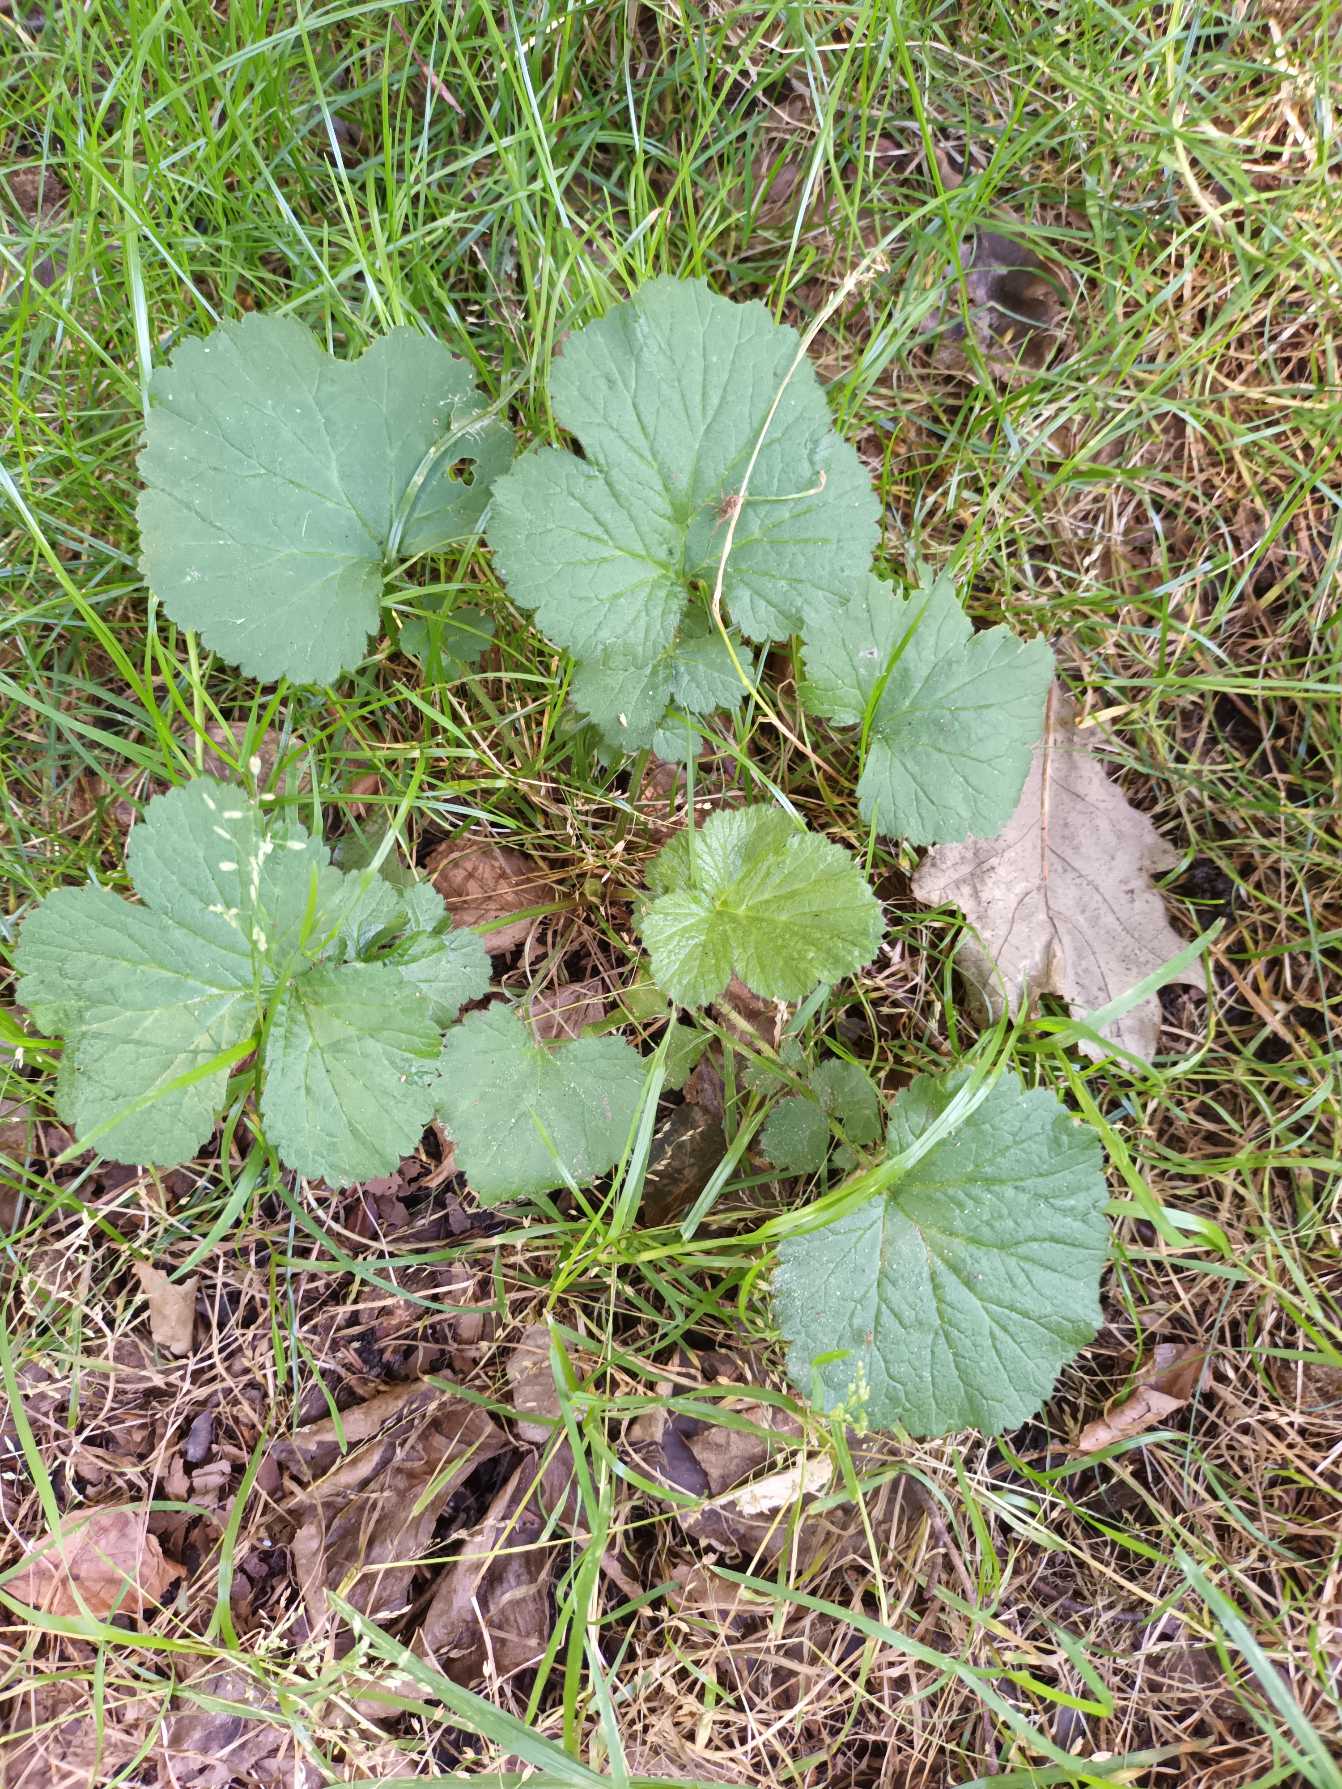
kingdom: Plantae
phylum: Tracheophyta
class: Magnoliopsida
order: Rosales
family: Rosaceae
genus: Geum
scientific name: Geum urbanum
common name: Feber-nellikerod
